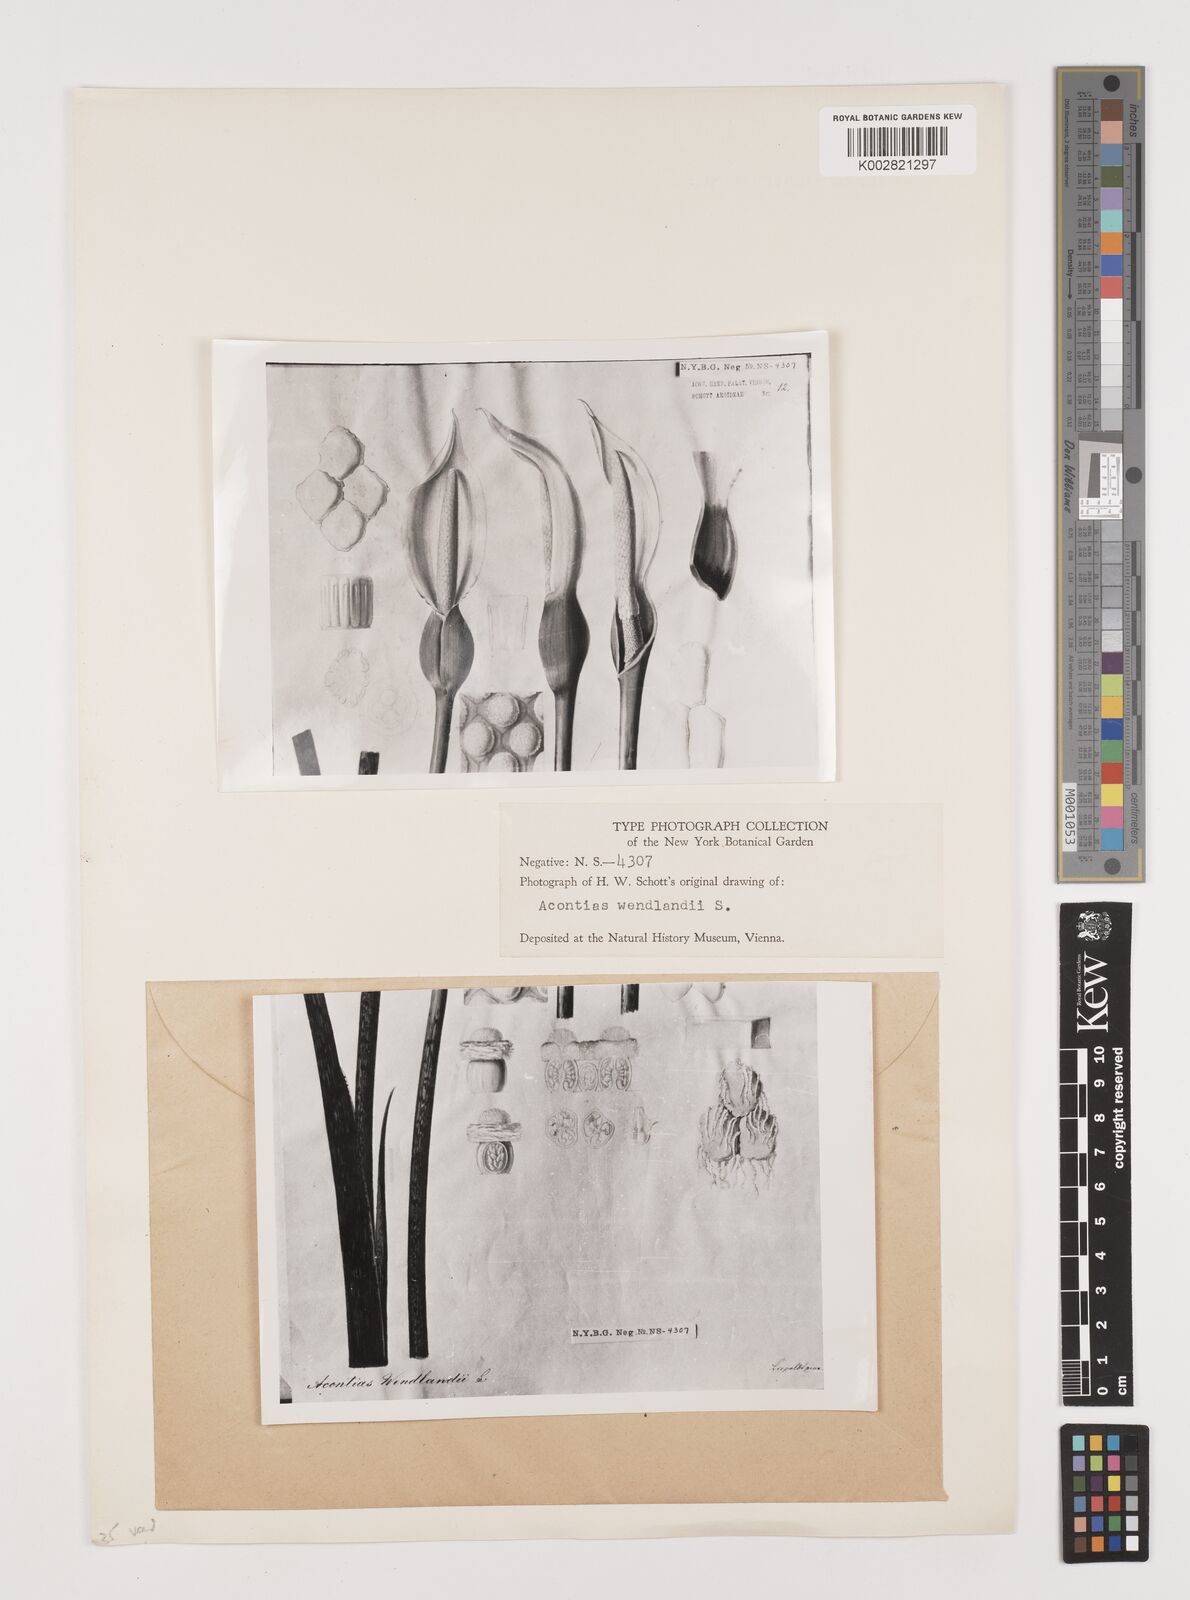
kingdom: Plantae
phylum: Tracheophyta
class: Liliopsida
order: Alismatales
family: Araceae
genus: Xanthosoma
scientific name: Xanthosoma wendlandii
